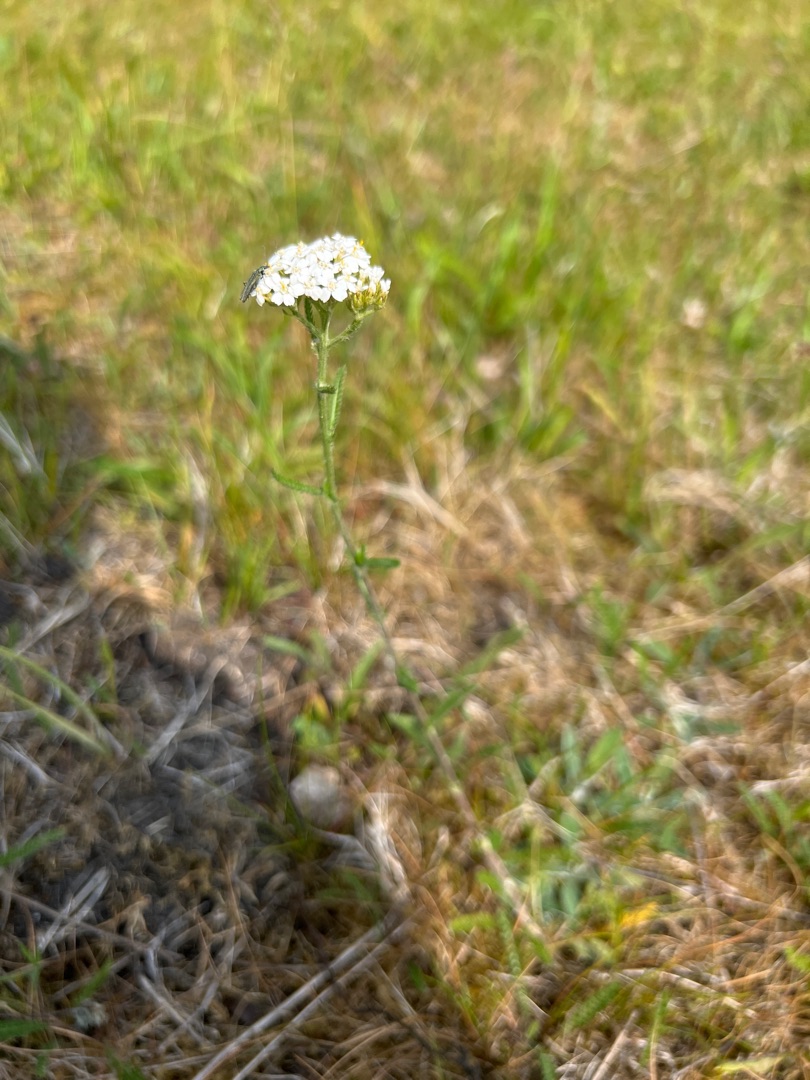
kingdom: Plantae
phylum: Tracheophyta
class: Magnoliopsida
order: Asterales
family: Asteraceae
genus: Achillea
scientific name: Achillea millefolium
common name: Almindelig røllike
